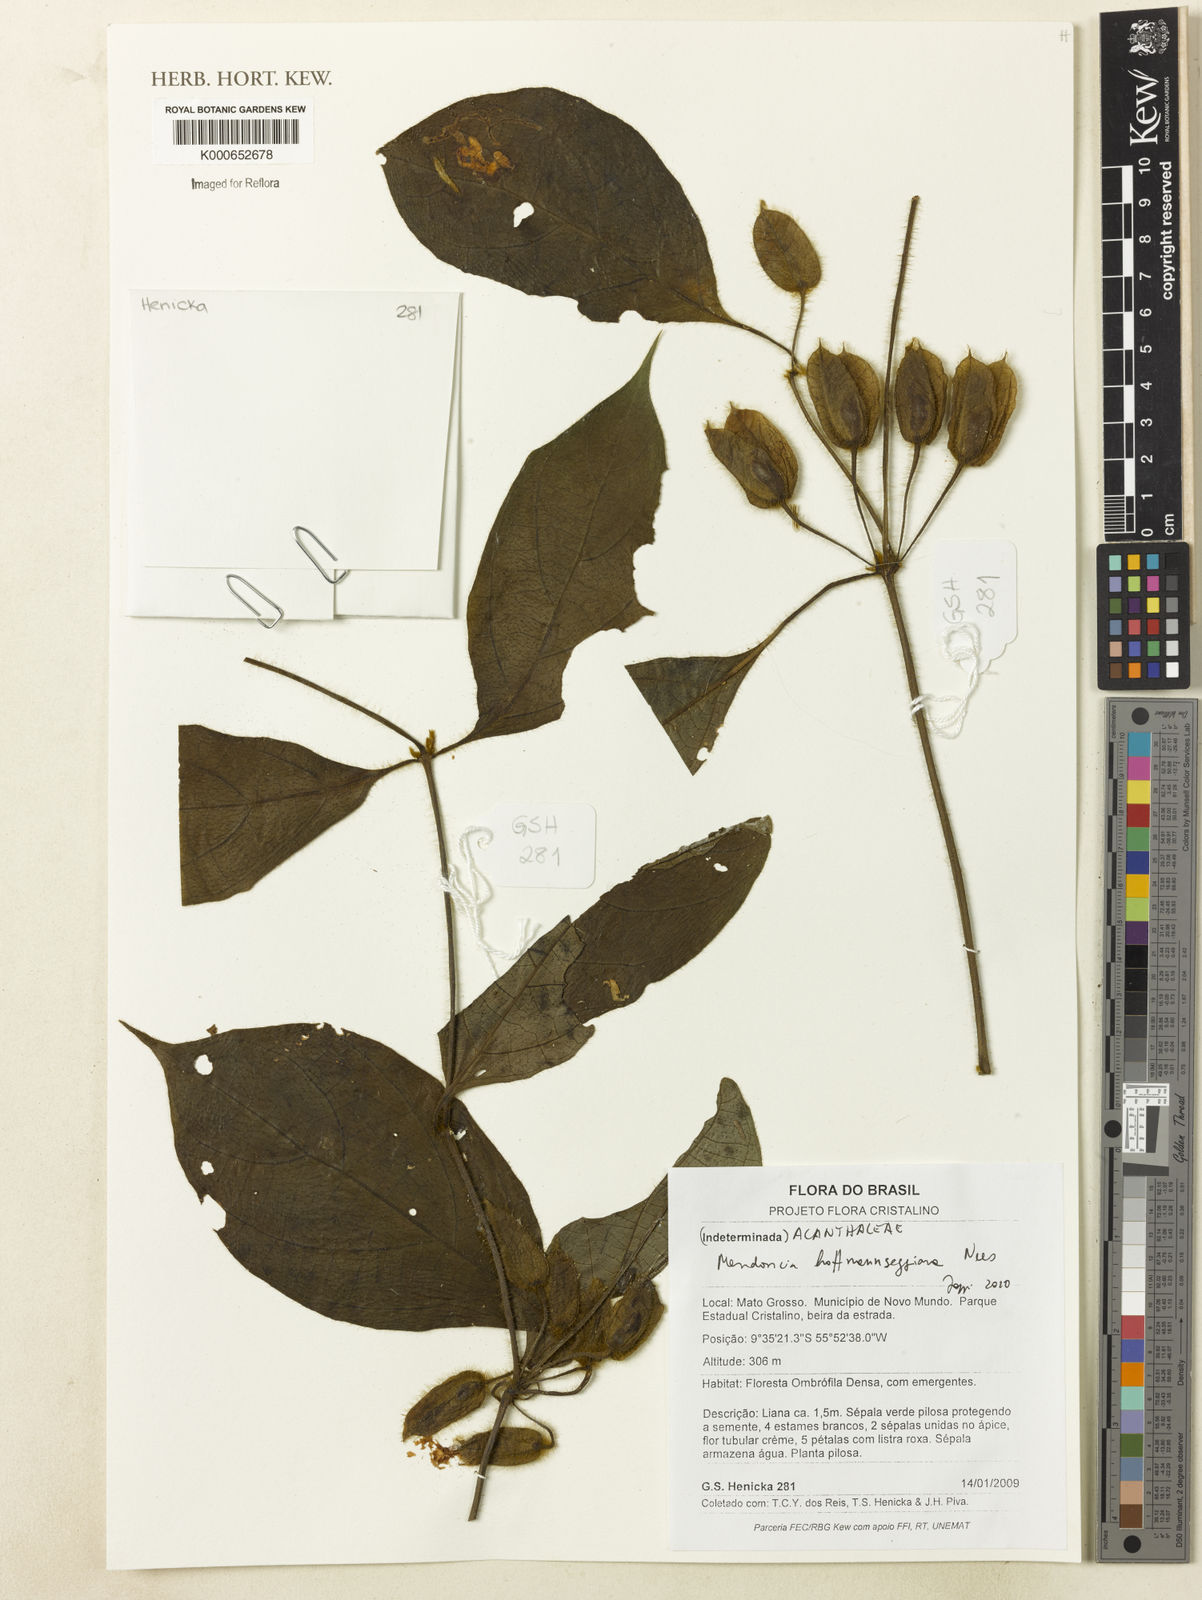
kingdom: Plantae
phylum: Tracheophyta
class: Magnoliopsida
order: Lamiales
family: Acanthaceae
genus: Mendoncia
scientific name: Mendoncia hoffmannseggiana
